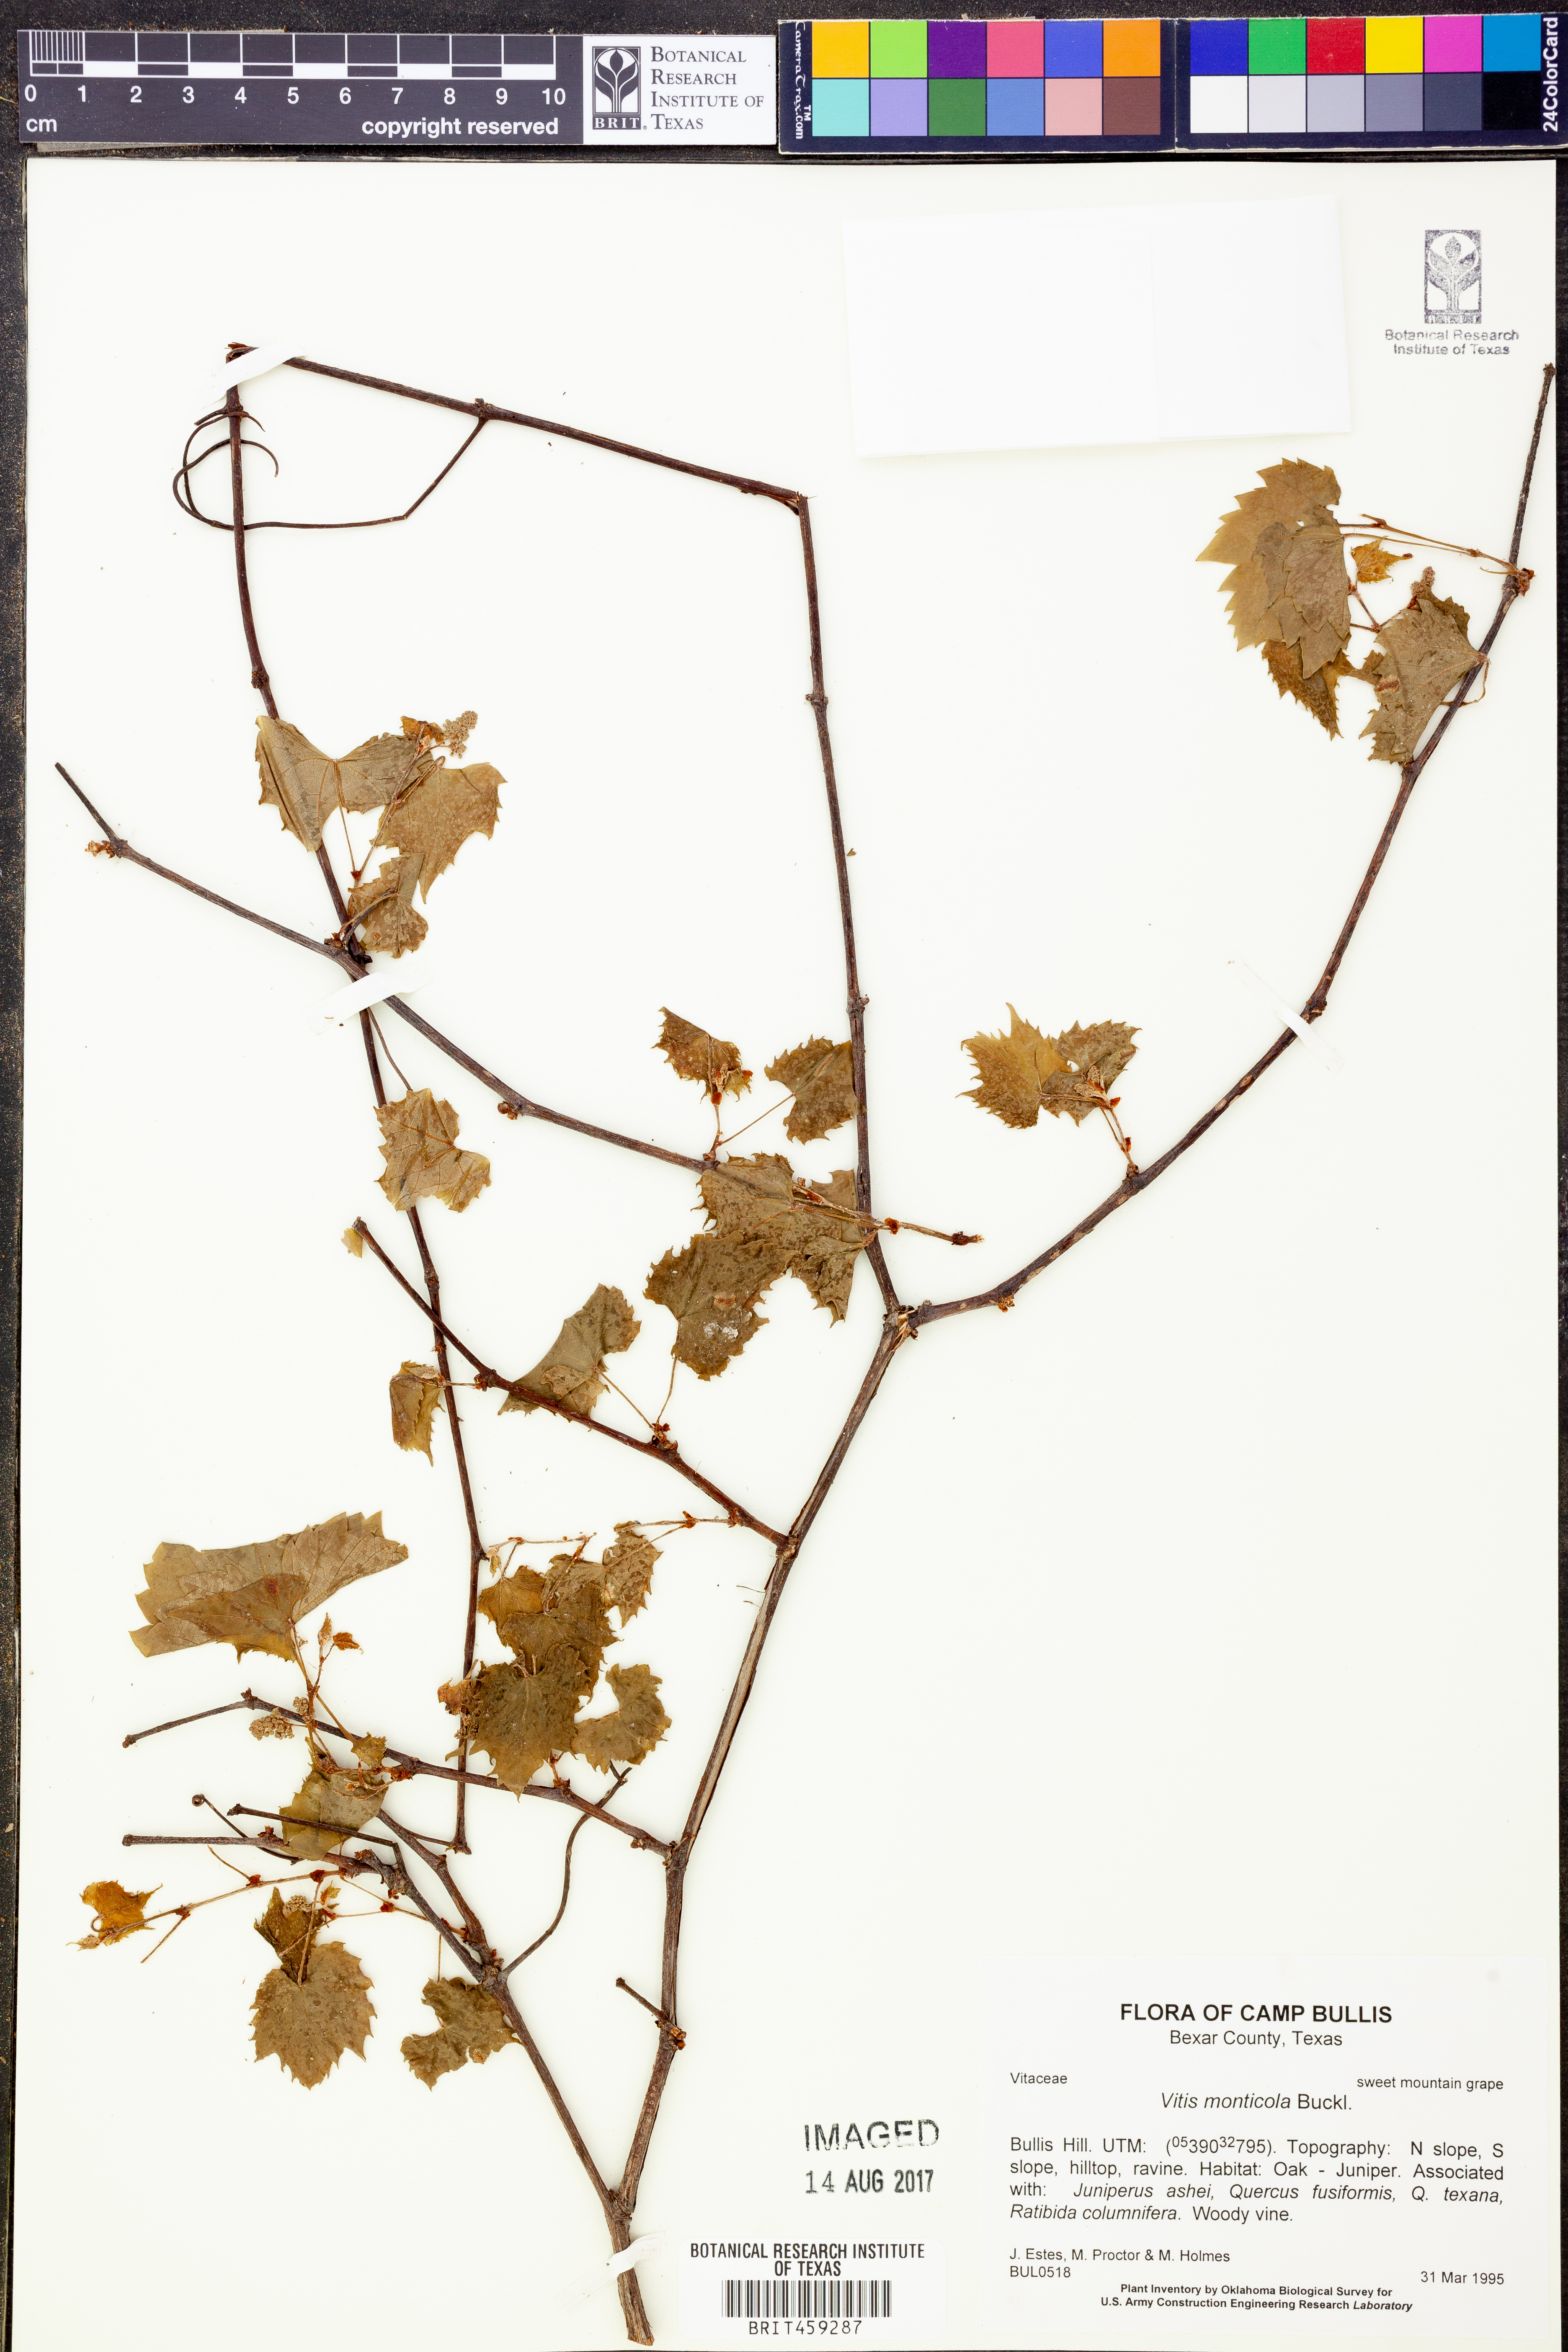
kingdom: Plantae
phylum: Tracheophyta
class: Magnoliopsida
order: Vitales
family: Vitaceae
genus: Vitis
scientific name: Vitis monticola
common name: Mountain grape
